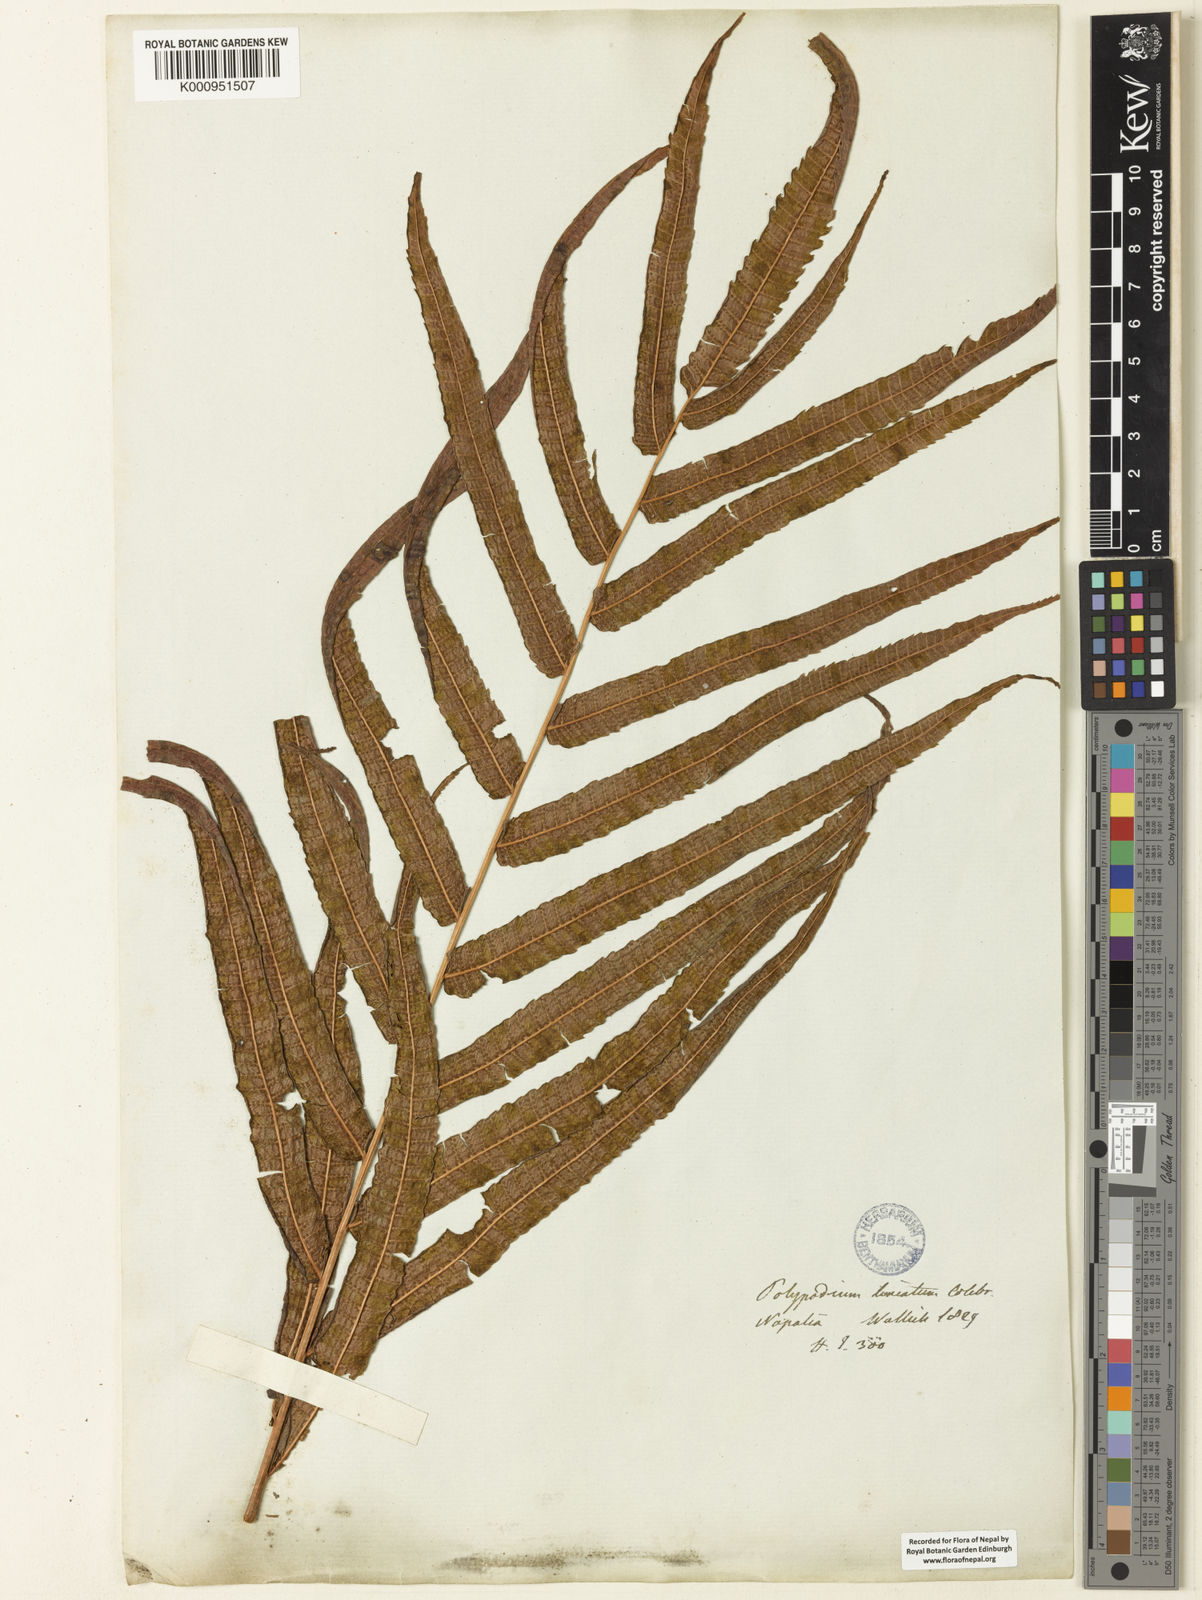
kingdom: Plantae
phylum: Tracheophyta
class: Polypodiopsida
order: Polypodiales
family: Thelypteridaceae
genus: Menisciopsis
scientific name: Menisciopsis penangiana
